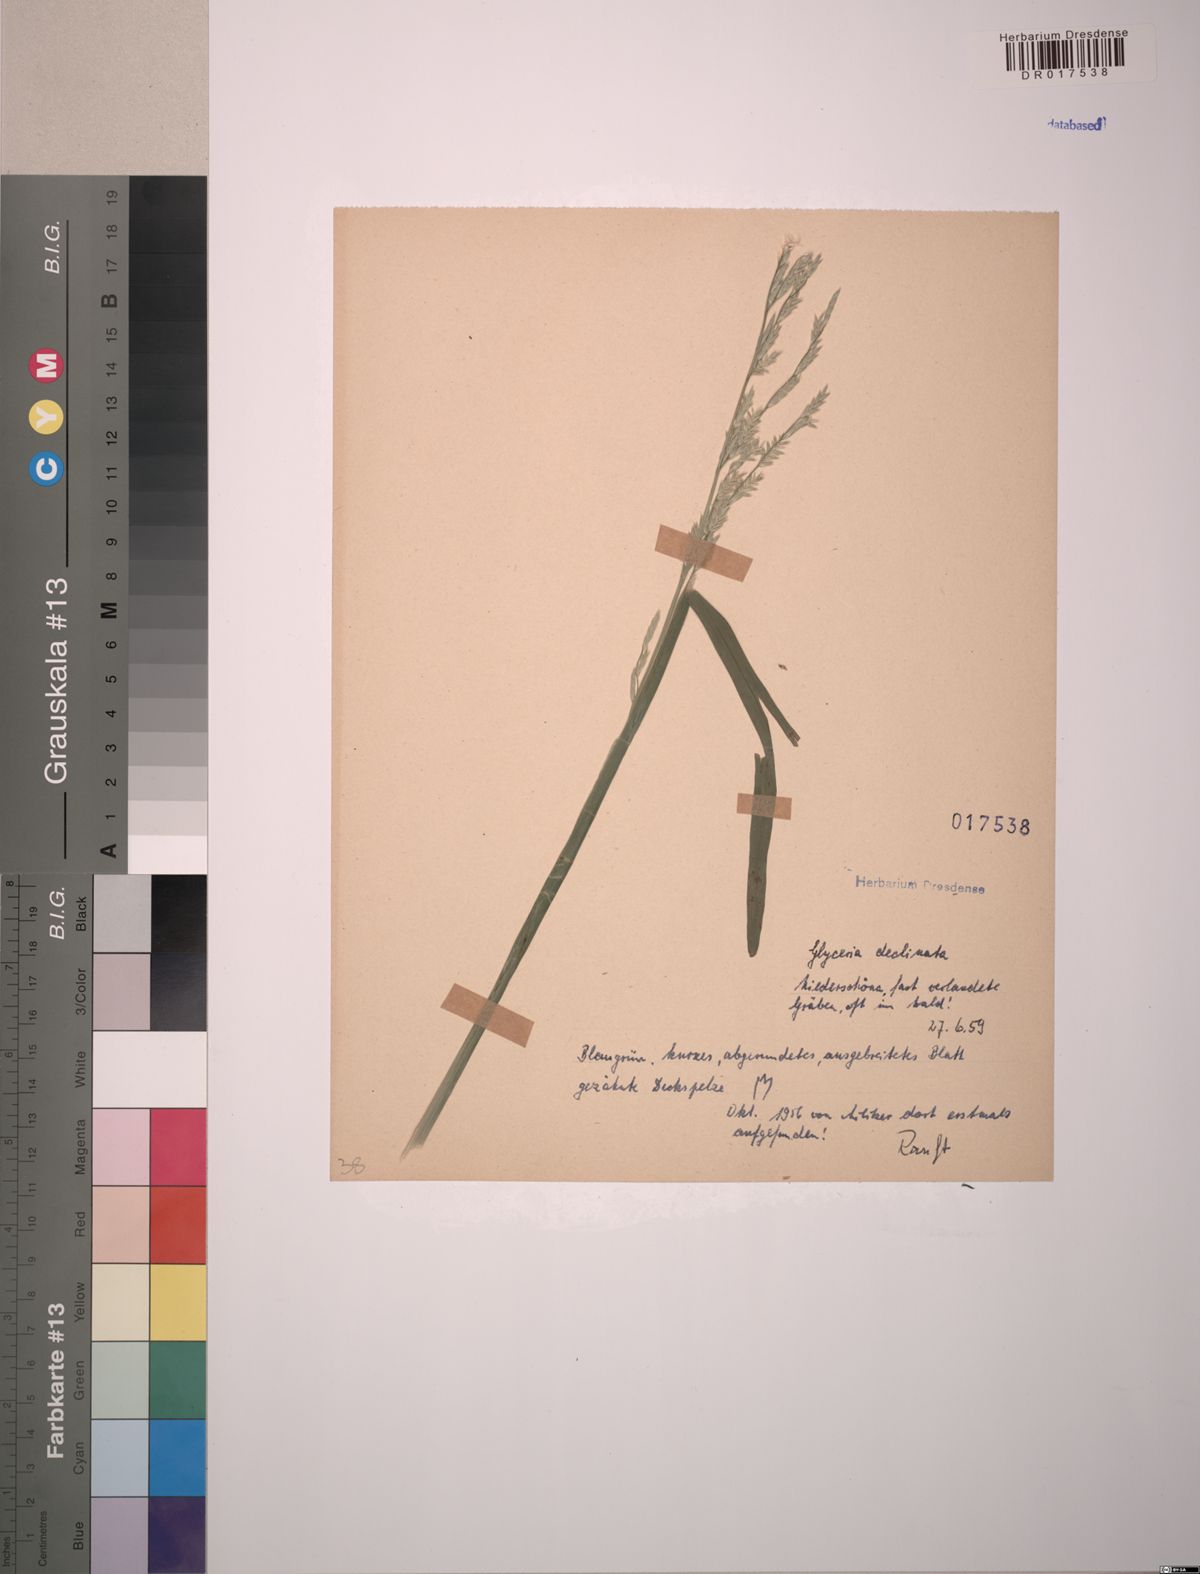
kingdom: Plantae
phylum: Tracheophyta
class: Liliopsida
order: Poales
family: Poaceae
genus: Glyceria
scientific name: Glyceria declinata
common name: Small sweet-grass
